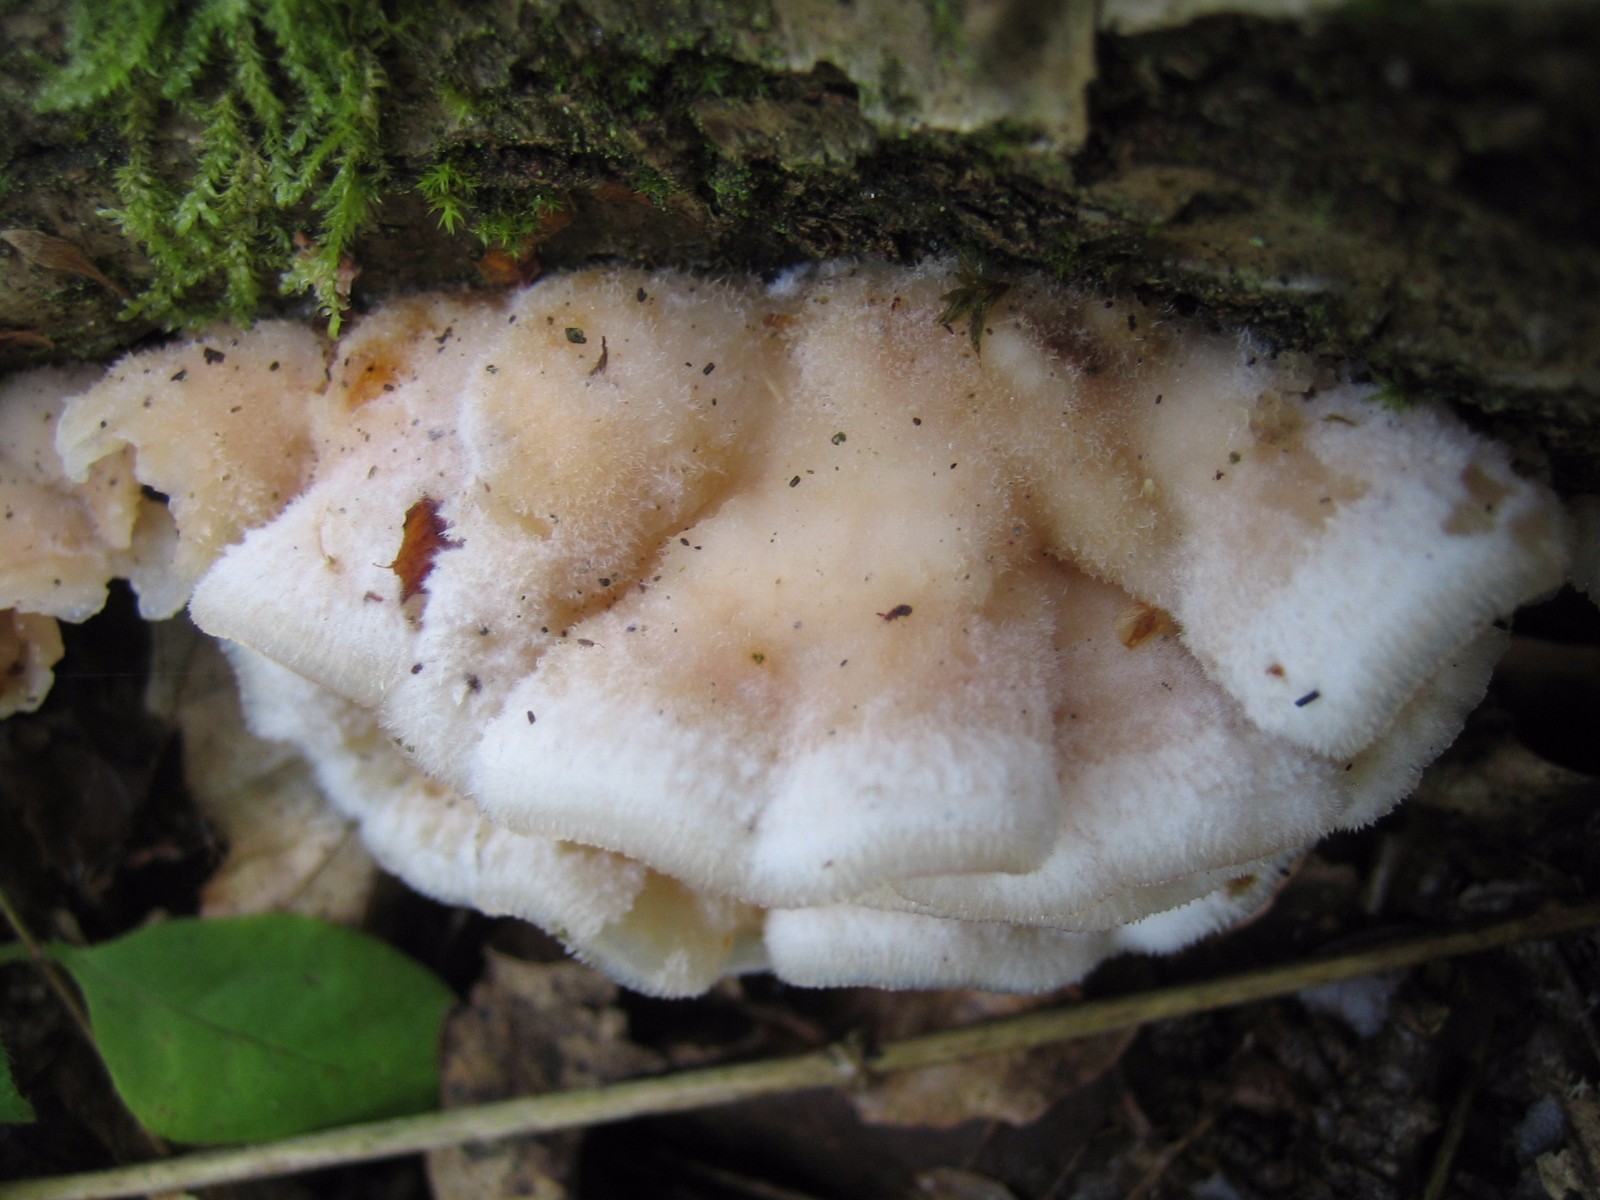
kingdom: Fungi
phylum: Basidiomycota
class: Agaricomycetes
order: Polyporales
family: Meruliaceae
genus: Phlebia
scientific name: Phlebia tremellosa
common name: bævrende åresvamp
